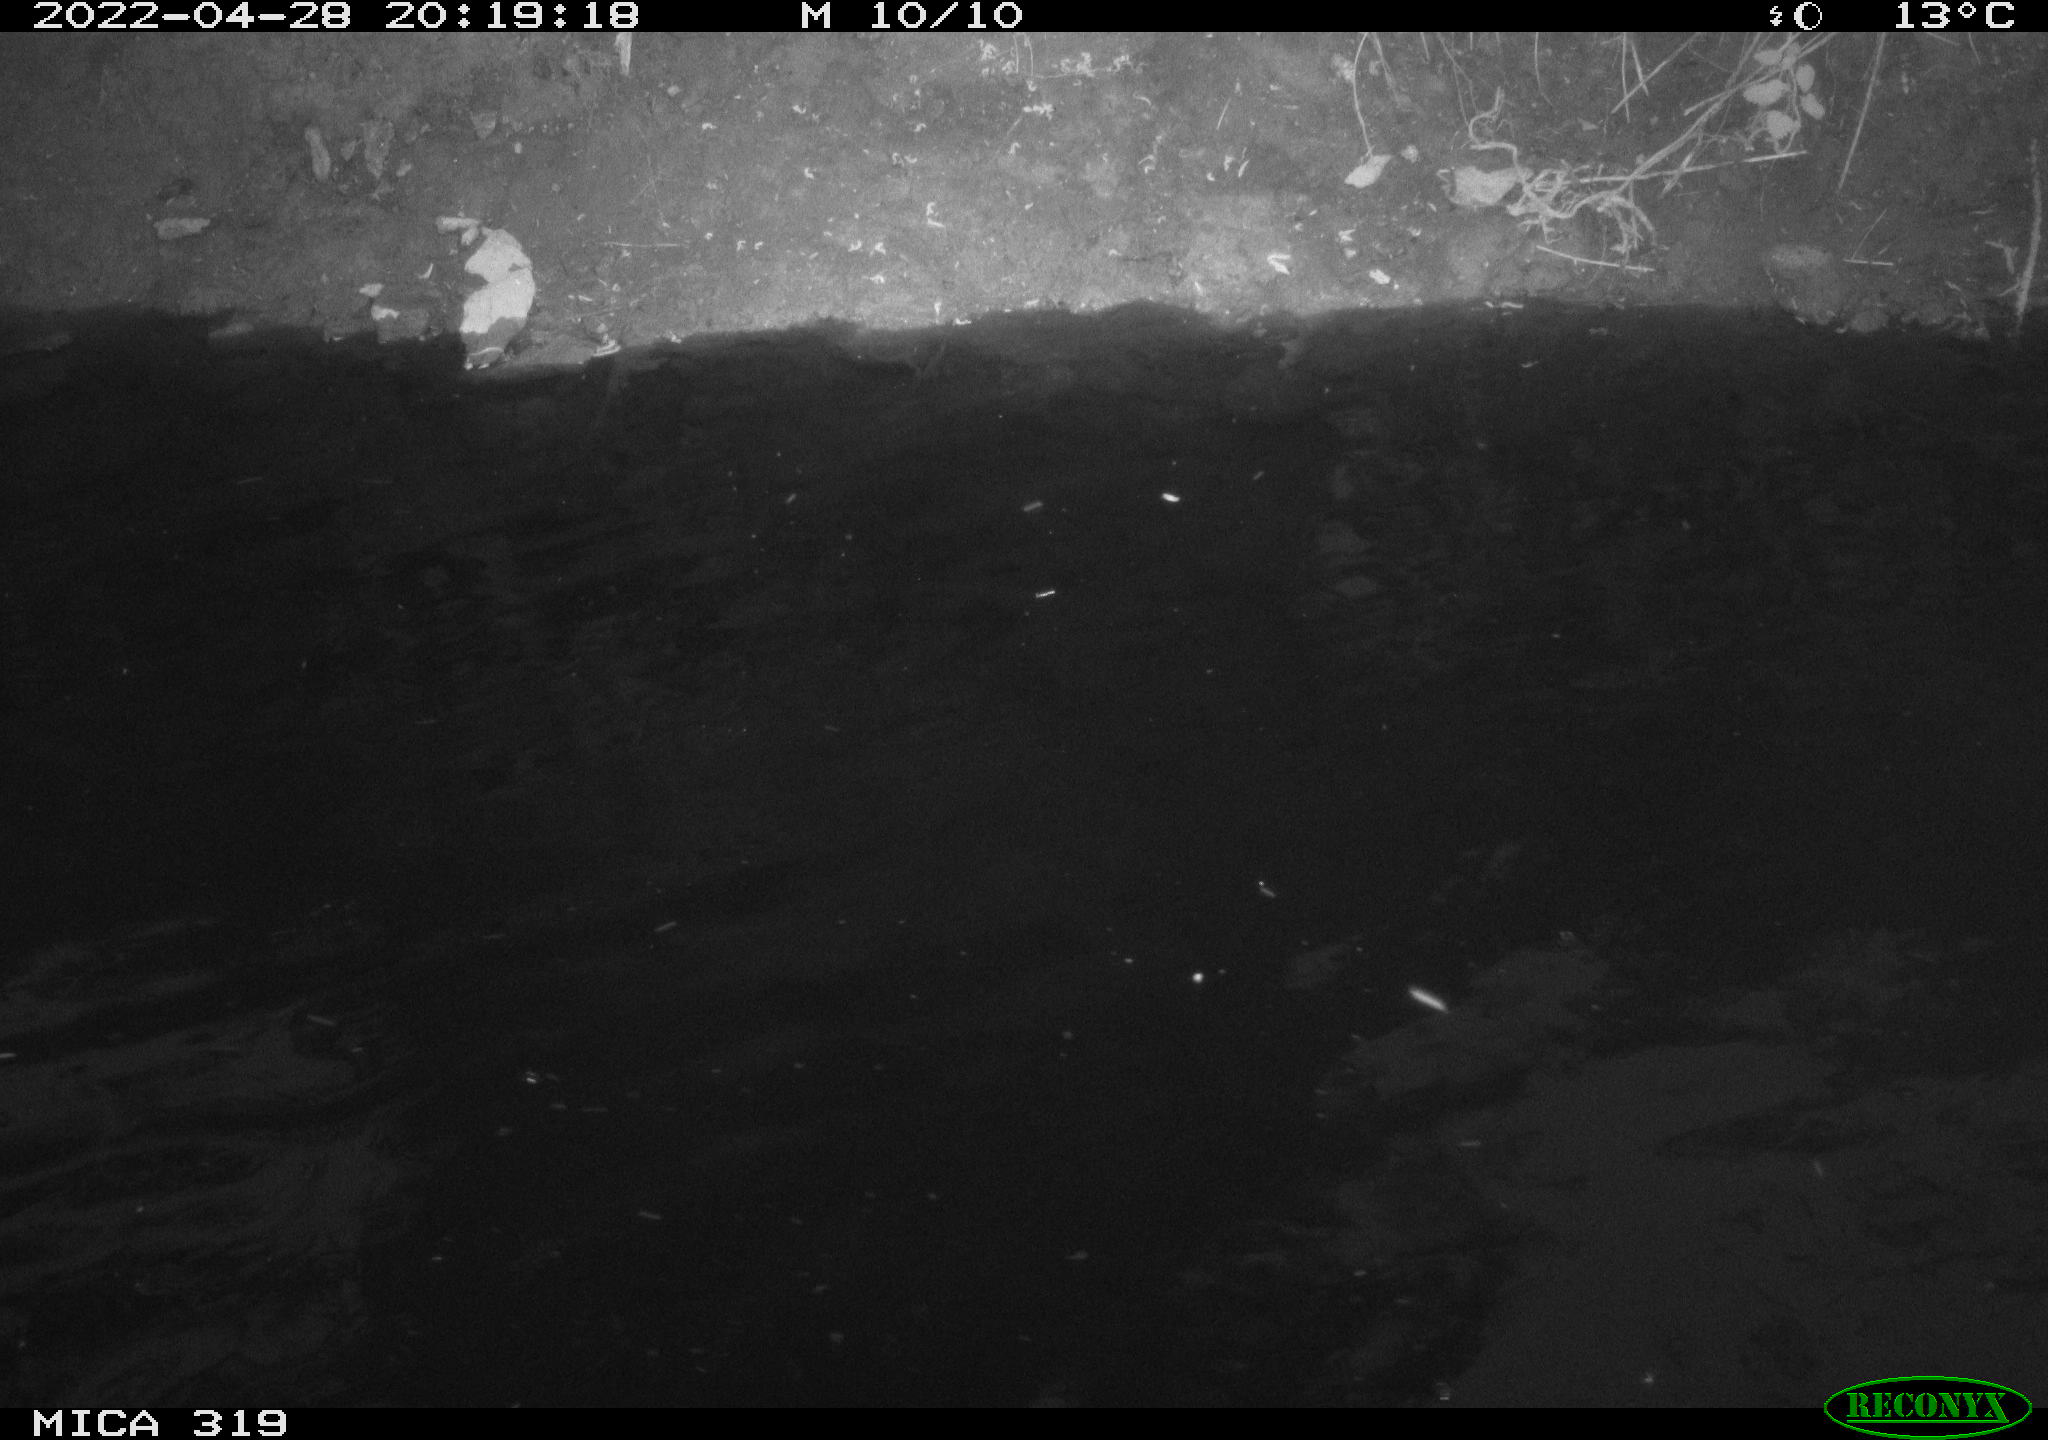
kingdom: Animalia
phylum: Chordata
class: Aves
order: Anseriformes
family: Anatidae
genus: Anas
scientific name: Anas platyrhynchos
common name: Mallard
